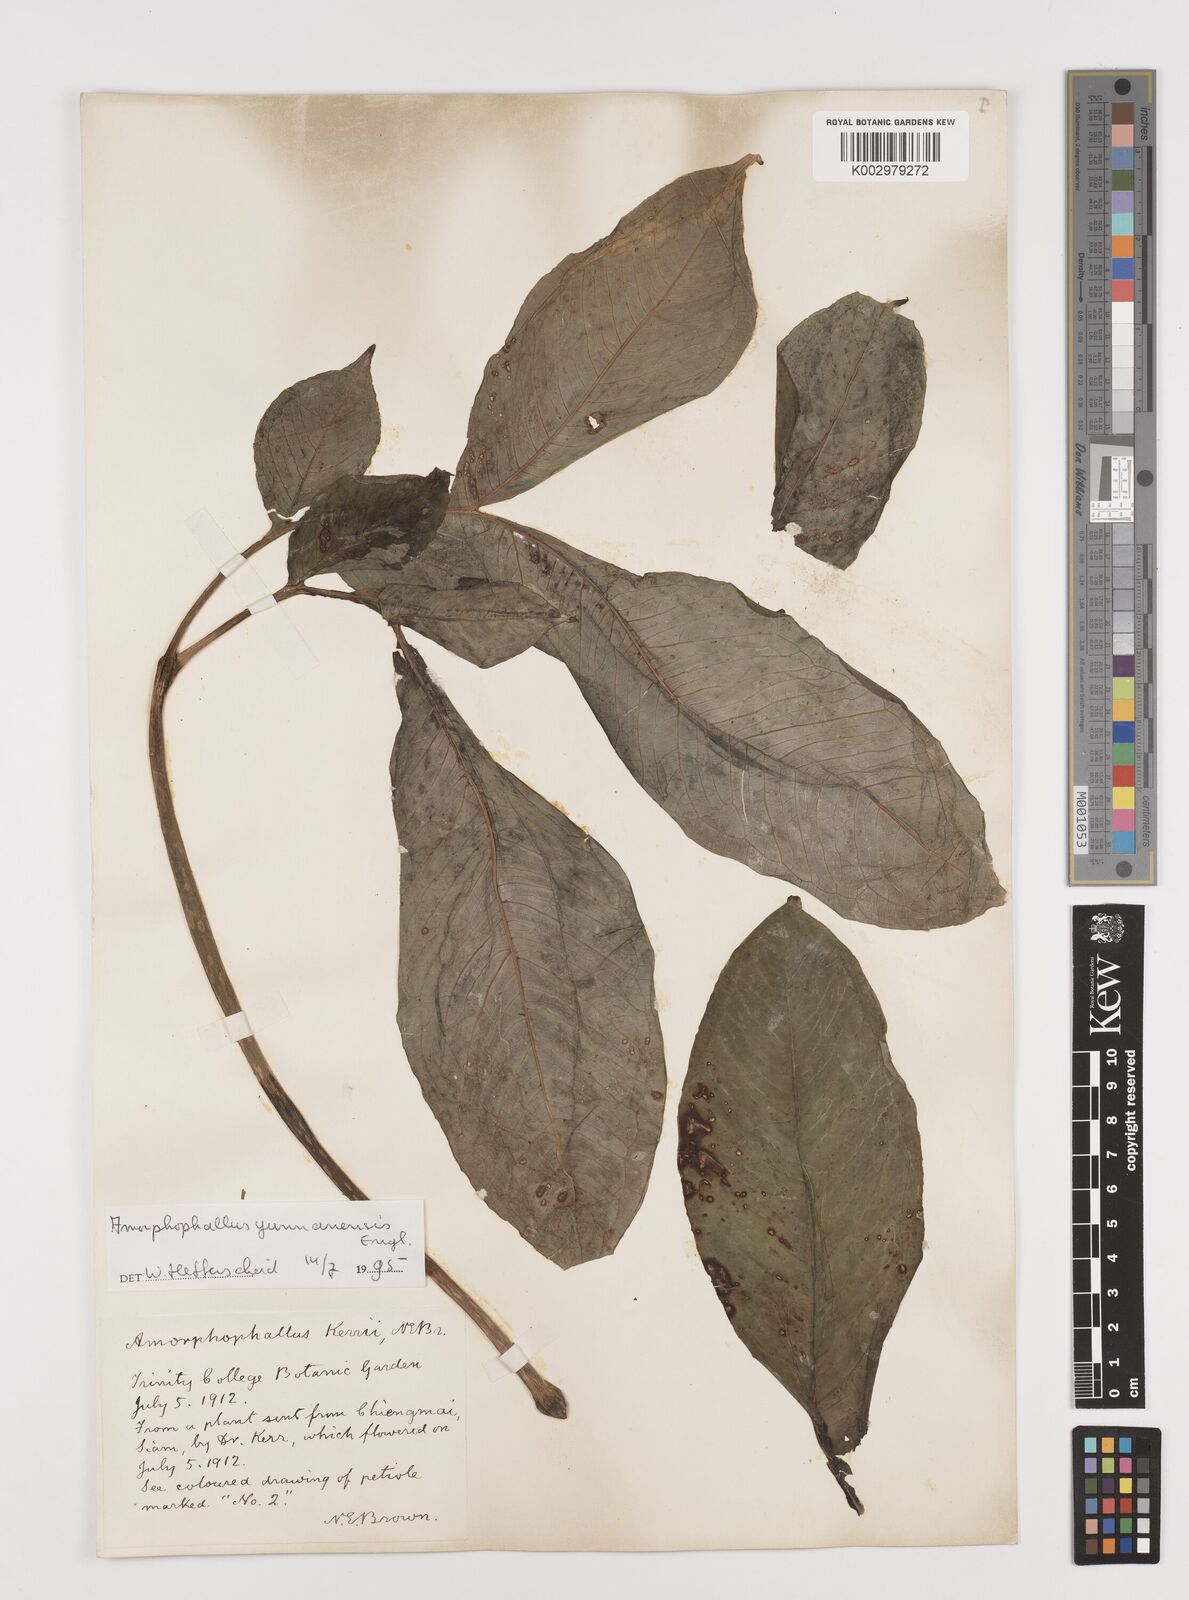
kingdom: Plantae
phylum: Tracheophyta
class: Liliopsida
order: Alismatales
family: Araceae
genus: Amorphophallus
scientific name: Amorphophallus yunnanensis
